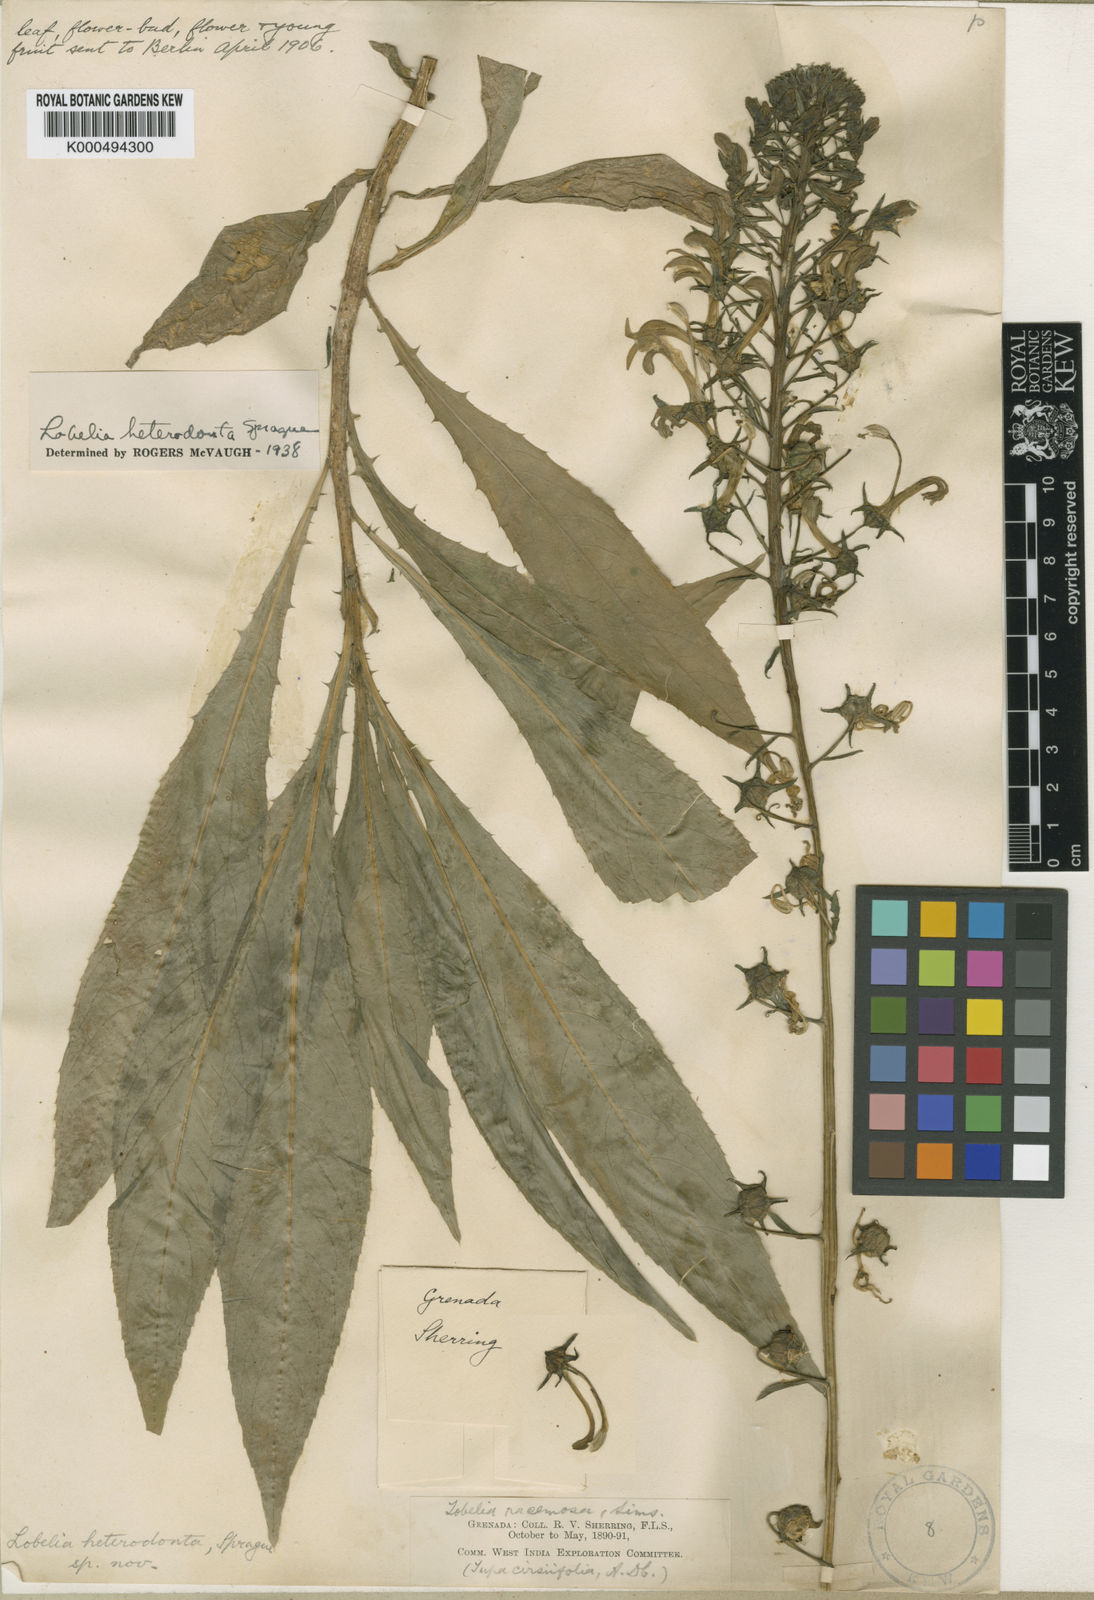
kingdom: Plantae
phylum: Tracheophyta
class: Magnoliopsida
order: Asterales
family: Campanulaceae
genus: Lobelia
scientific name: Lobelia cirsiifolia
